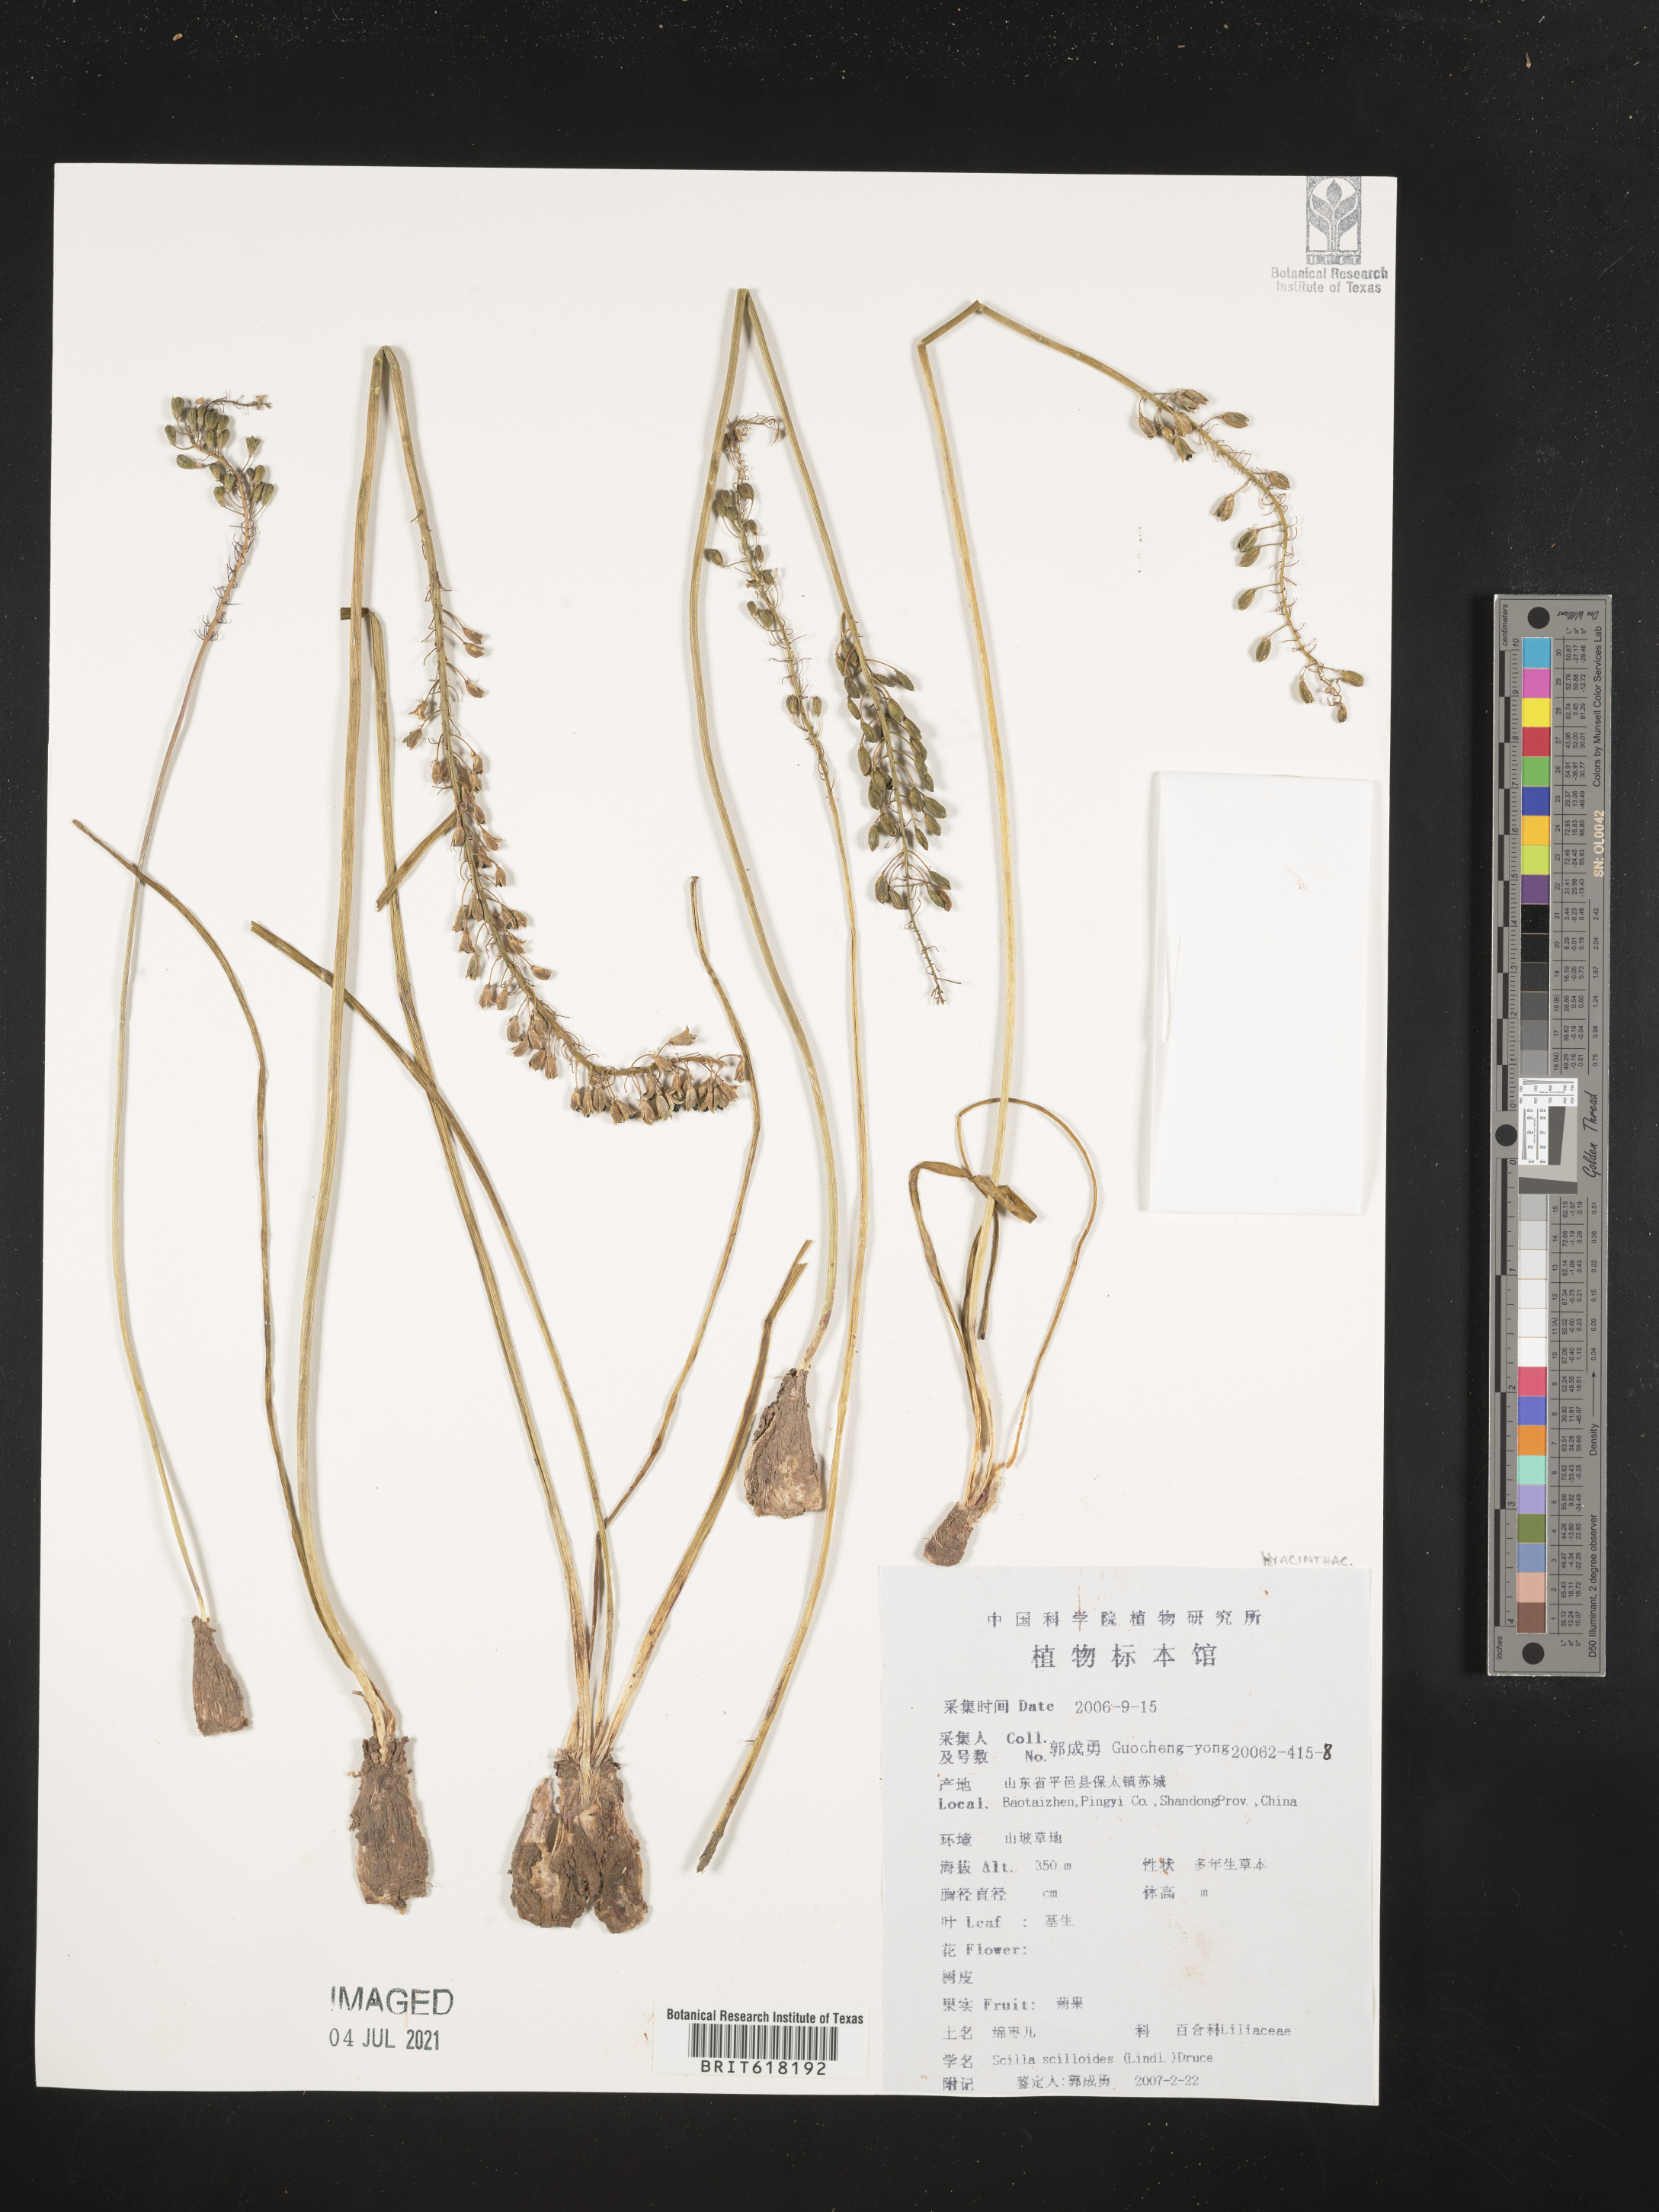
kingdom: Plantae
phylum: Tracheophyta
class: Liliopsida
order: Asparagales
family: Asparagaceae
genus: Barnardia
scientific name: Barnardia japonica
